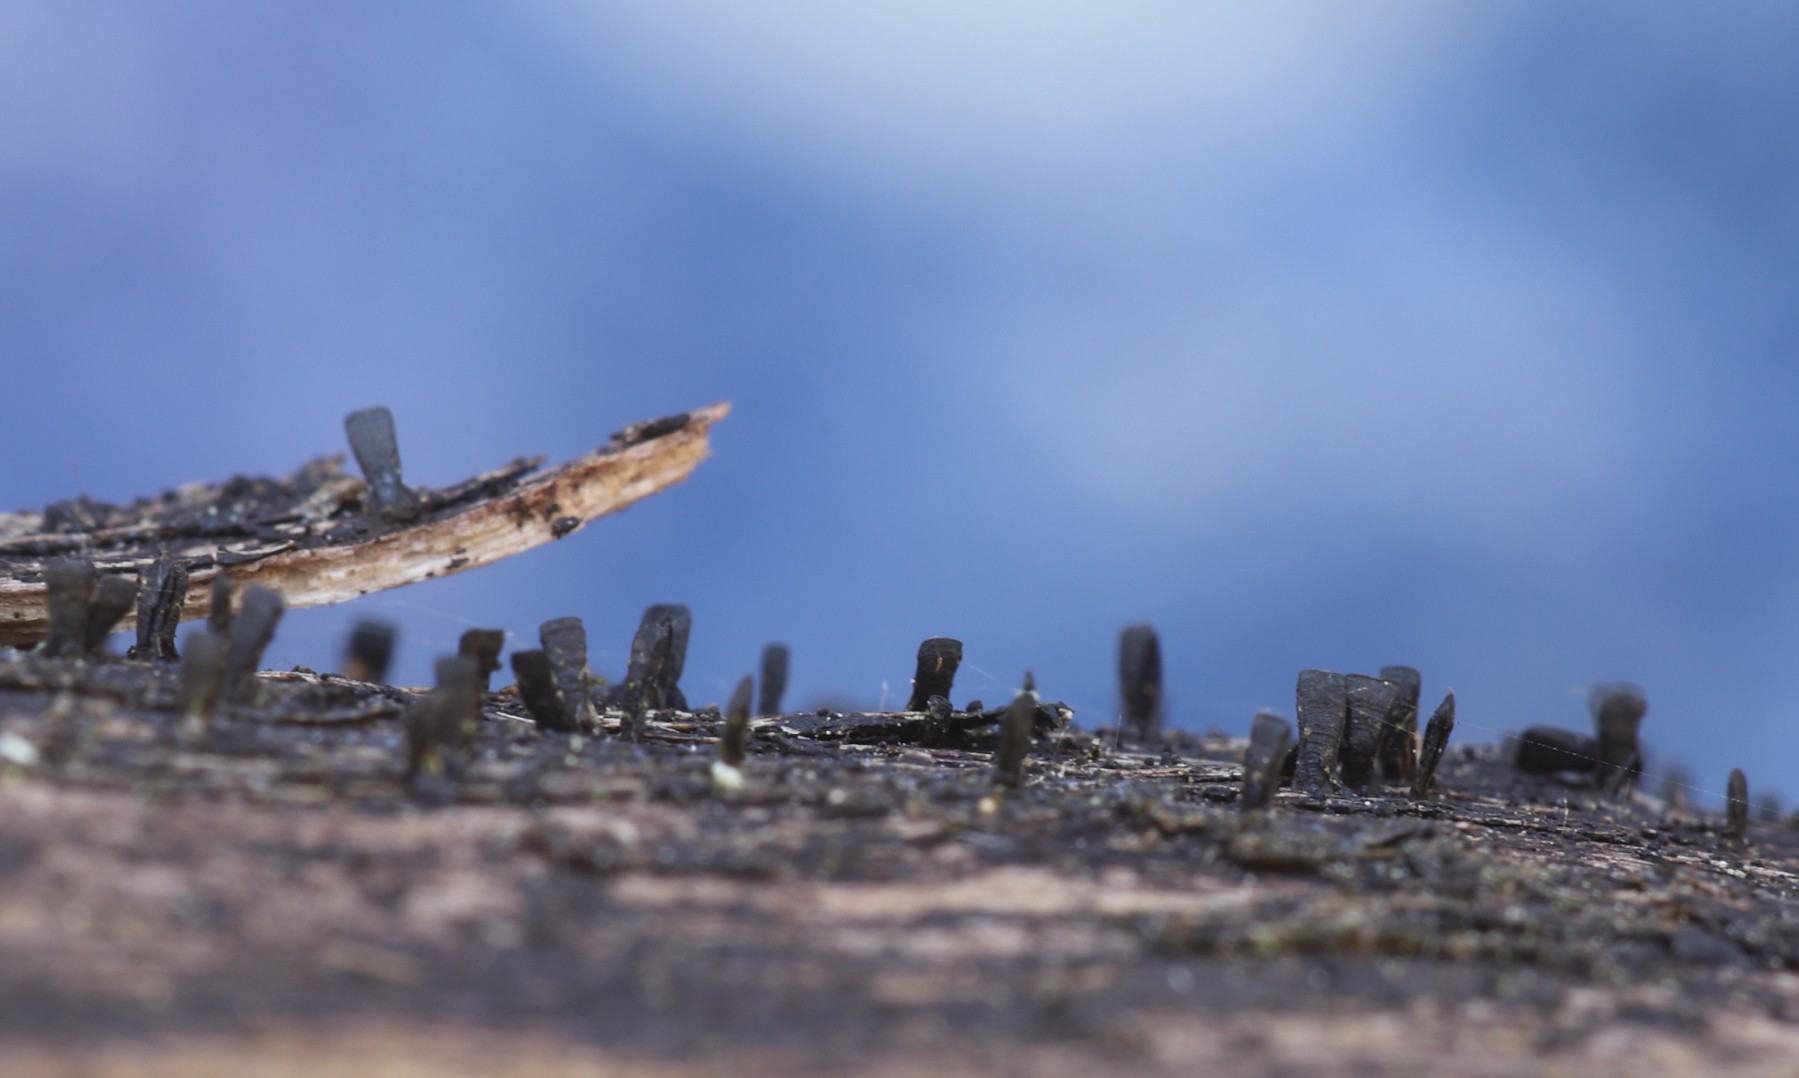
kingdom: Fungi
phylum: Ascomycota
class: Eurotiomycetes
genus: Glyphium
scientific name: Glyphium elatum
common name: kuløkse
